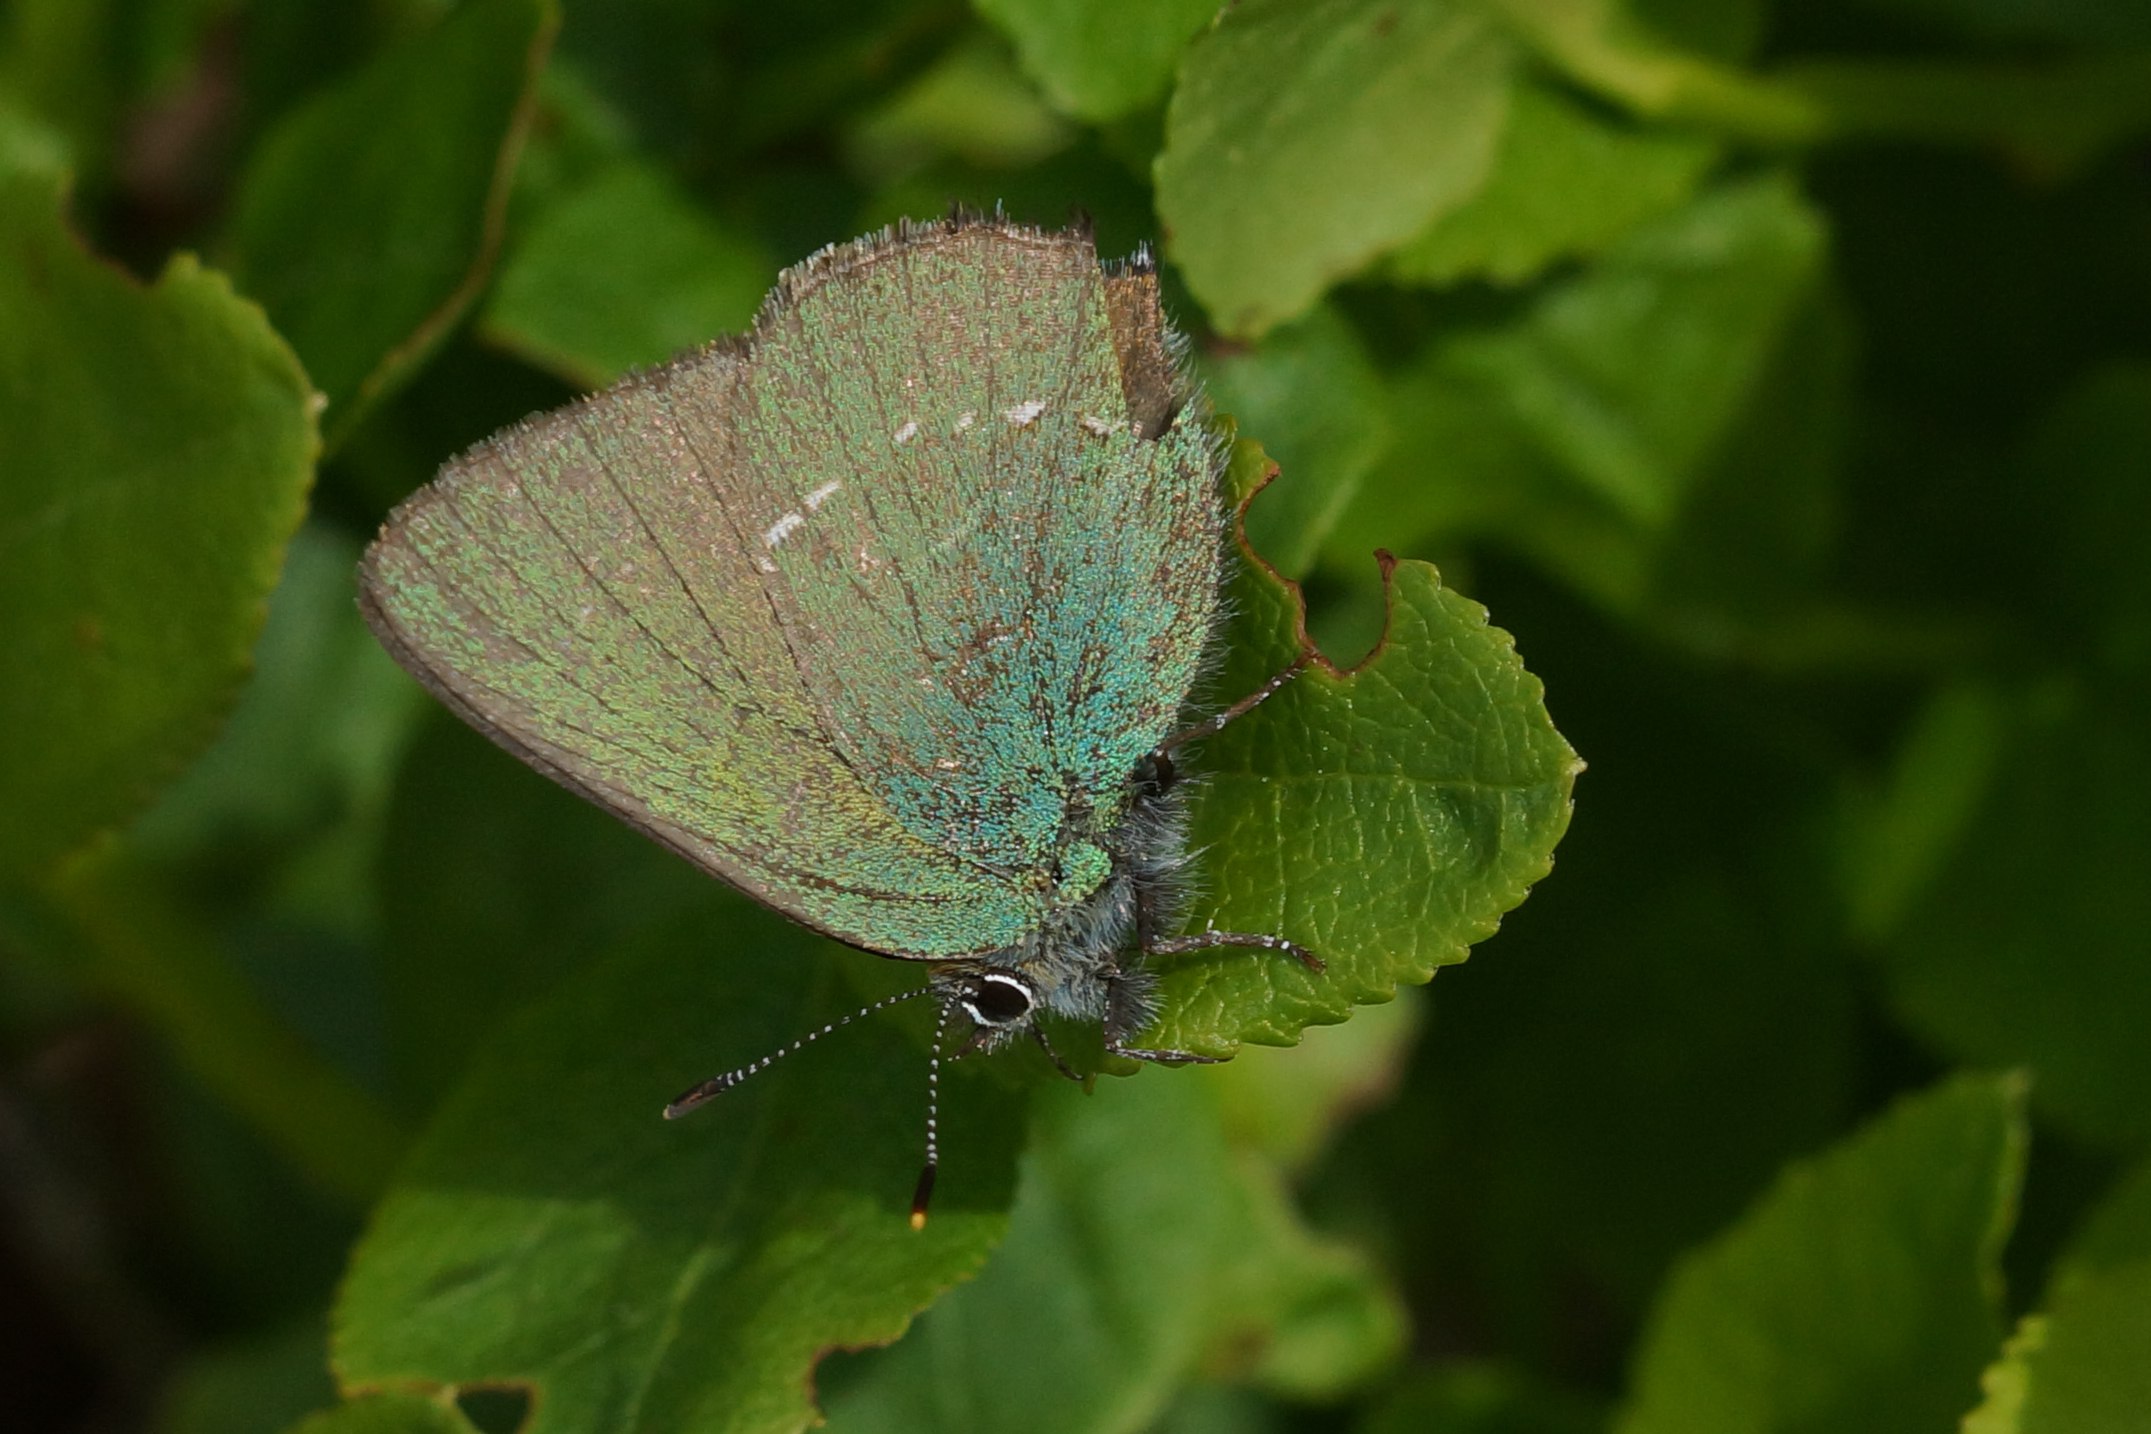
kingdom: Animalia
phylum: Arthropoda
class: Insecta
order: Lepidoptera
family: Lycaenidae
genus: Callophrys
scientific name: Callophrys rubi
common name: Grøn busksommerfugl
